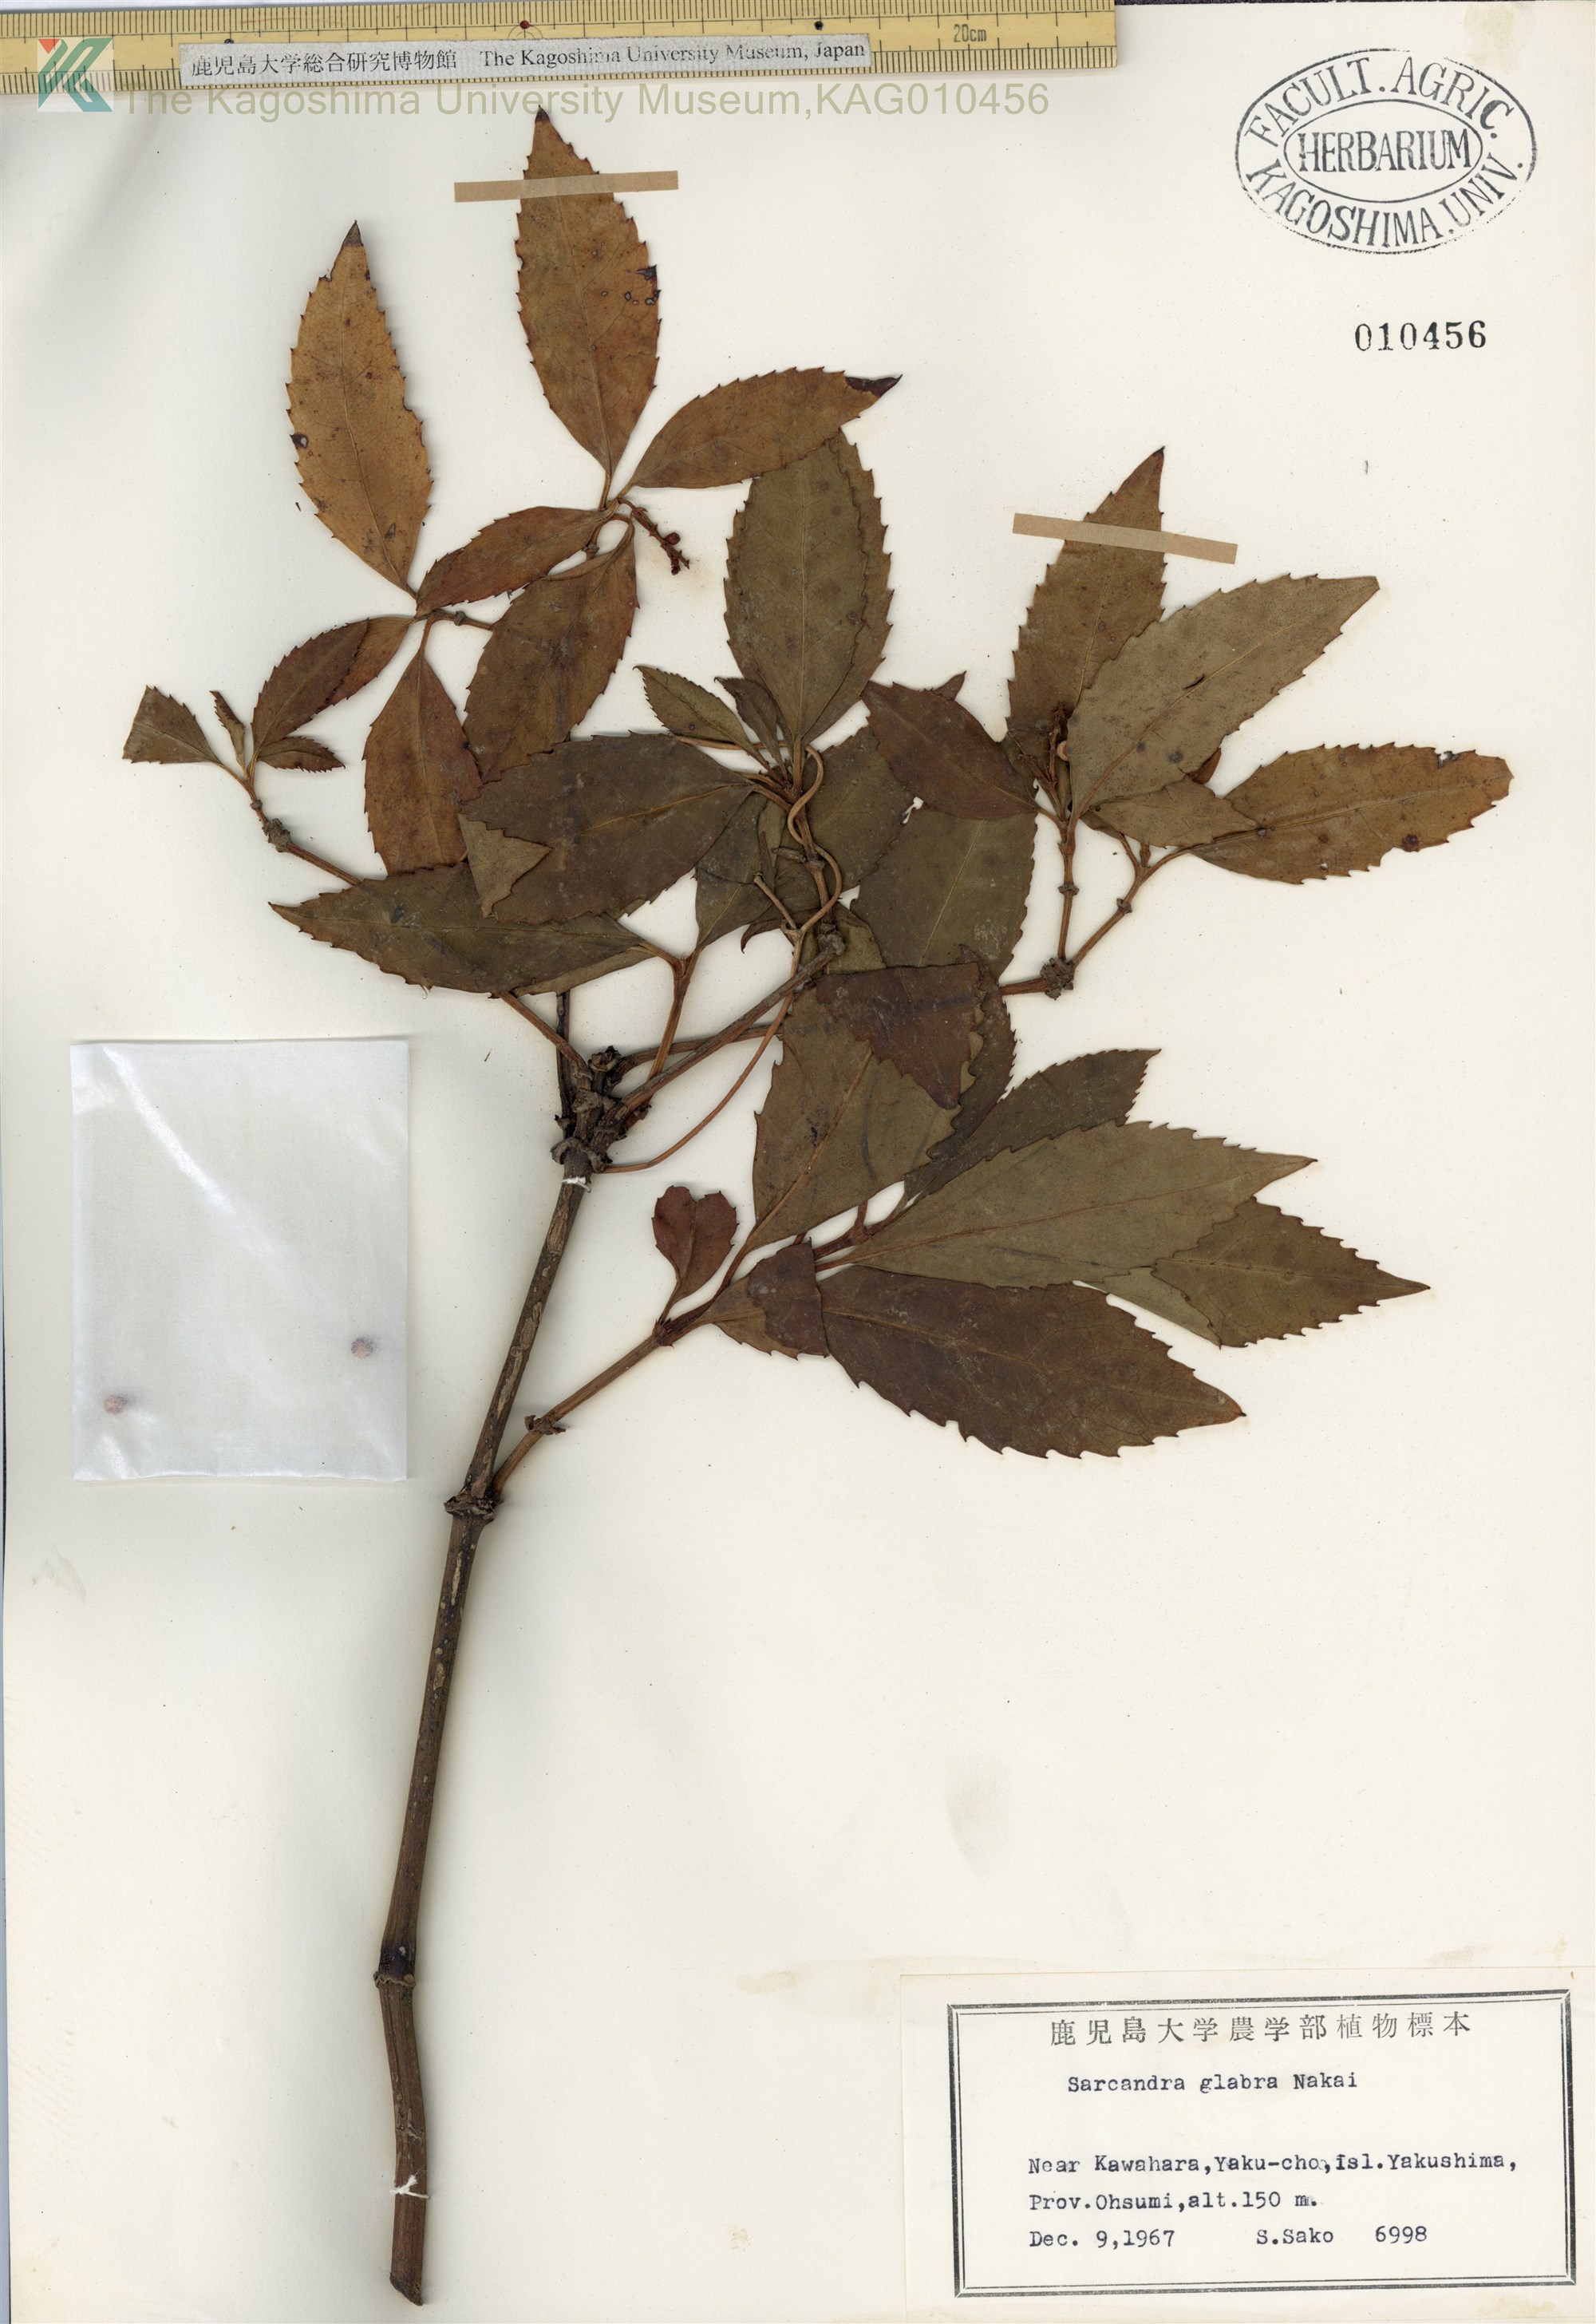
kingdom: Plantae
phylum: Tracheophyta
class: Magnoliopsida
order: Chloranthales
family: Chloranthaceae
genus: Sarcandra
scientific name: Sarcandra glabra
